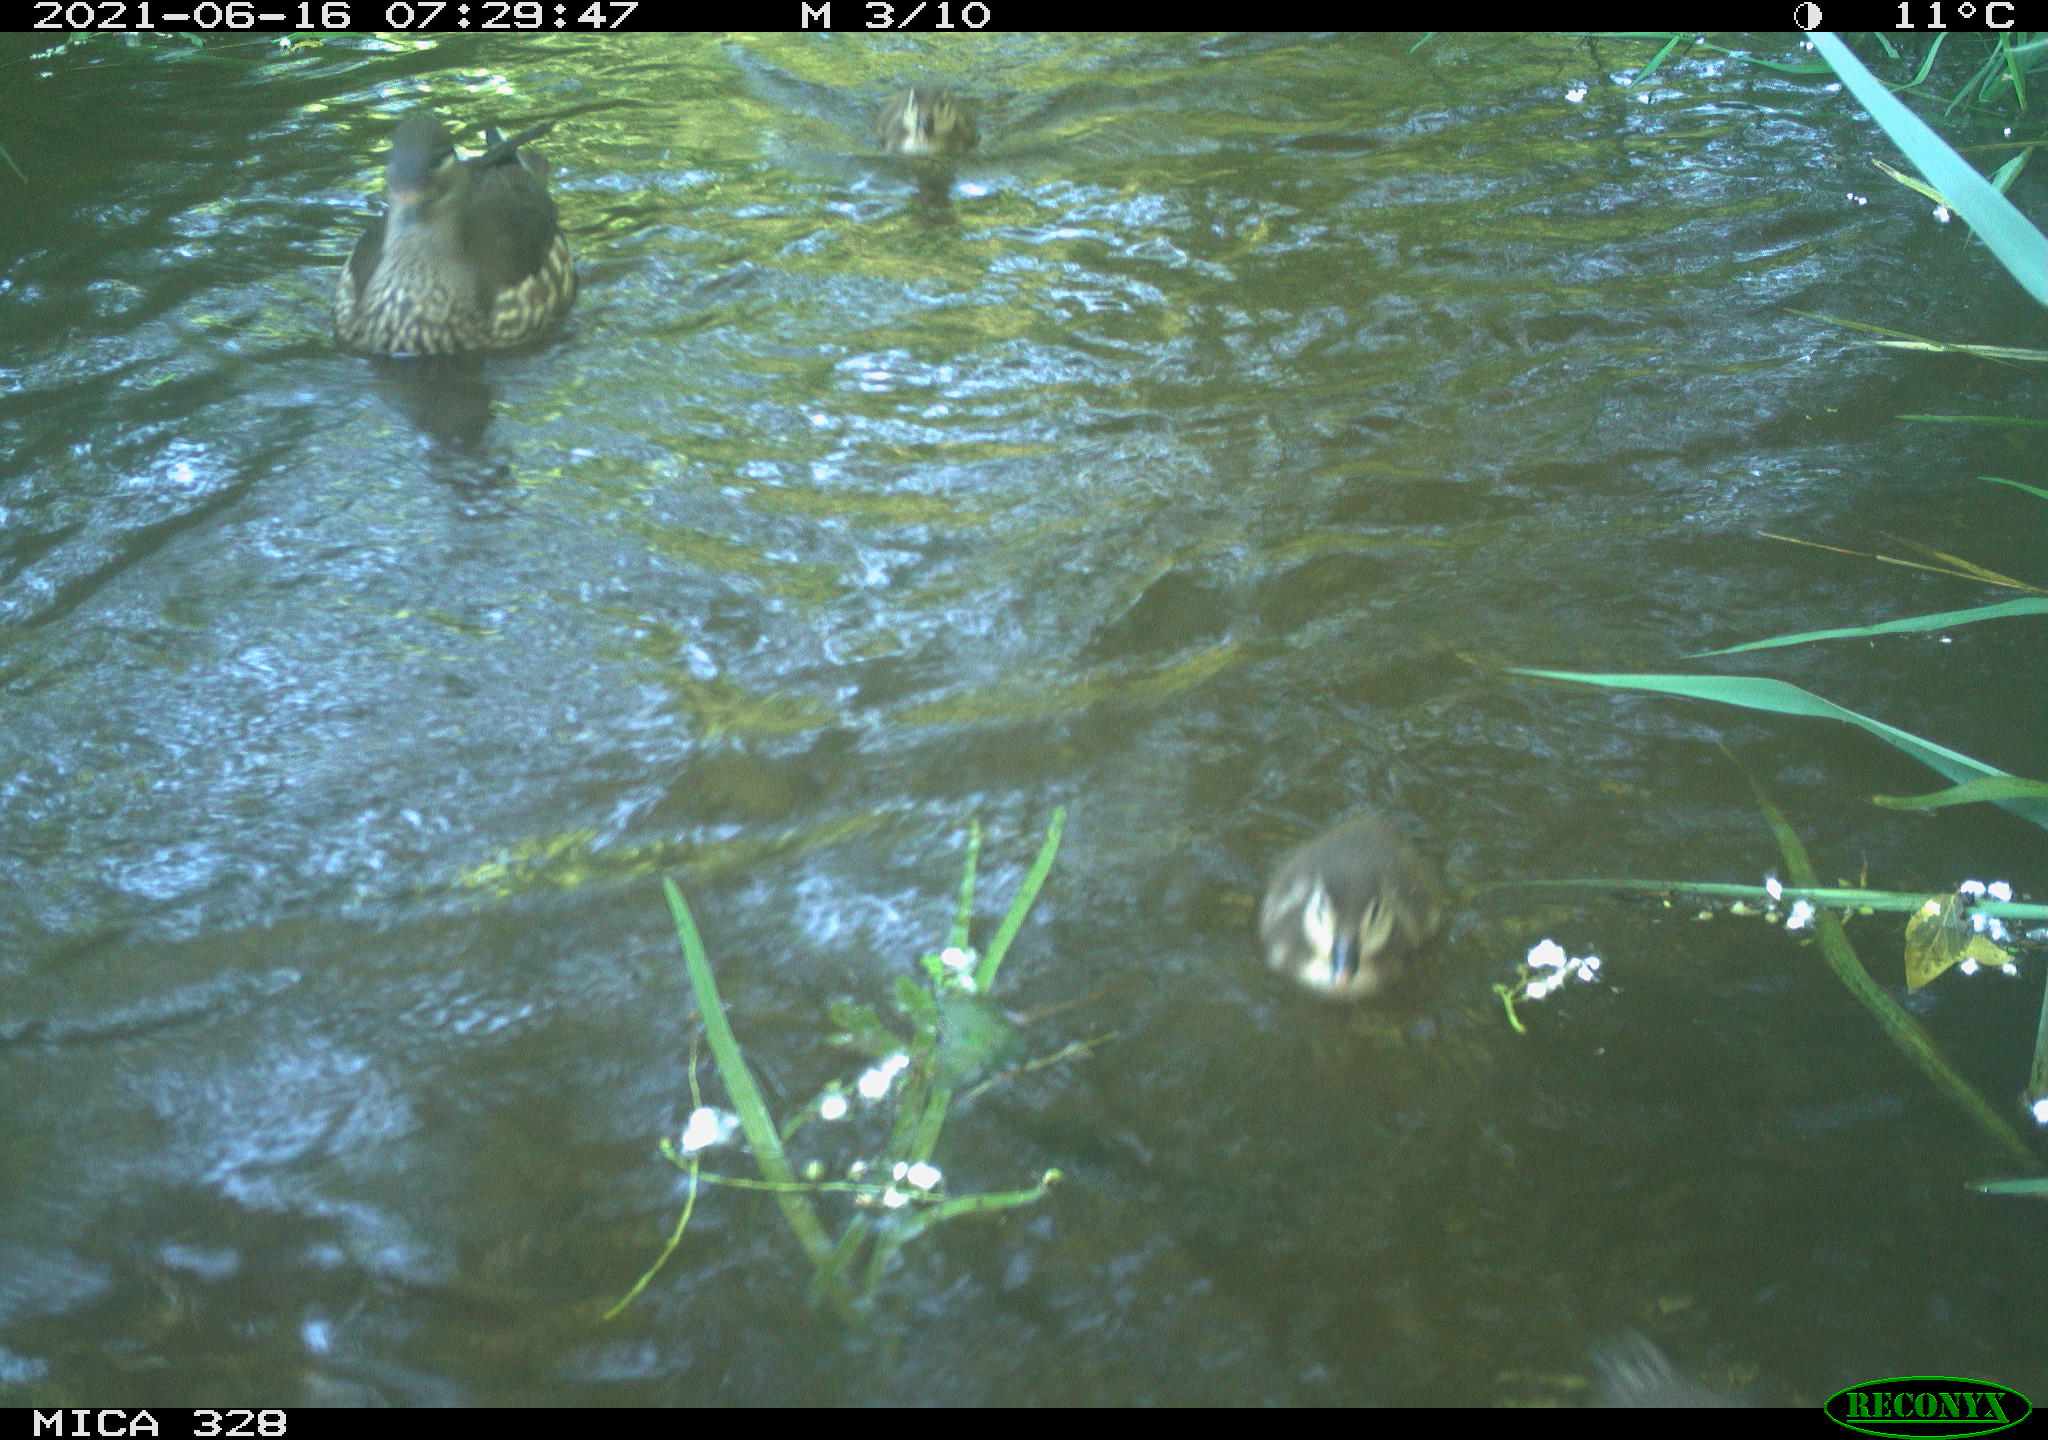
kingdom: Animalia
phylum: Chordata
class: Aves
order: Anseriformes
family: Anatidae
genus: Aix
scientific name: Aix galericulata
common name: Mandarin duck
